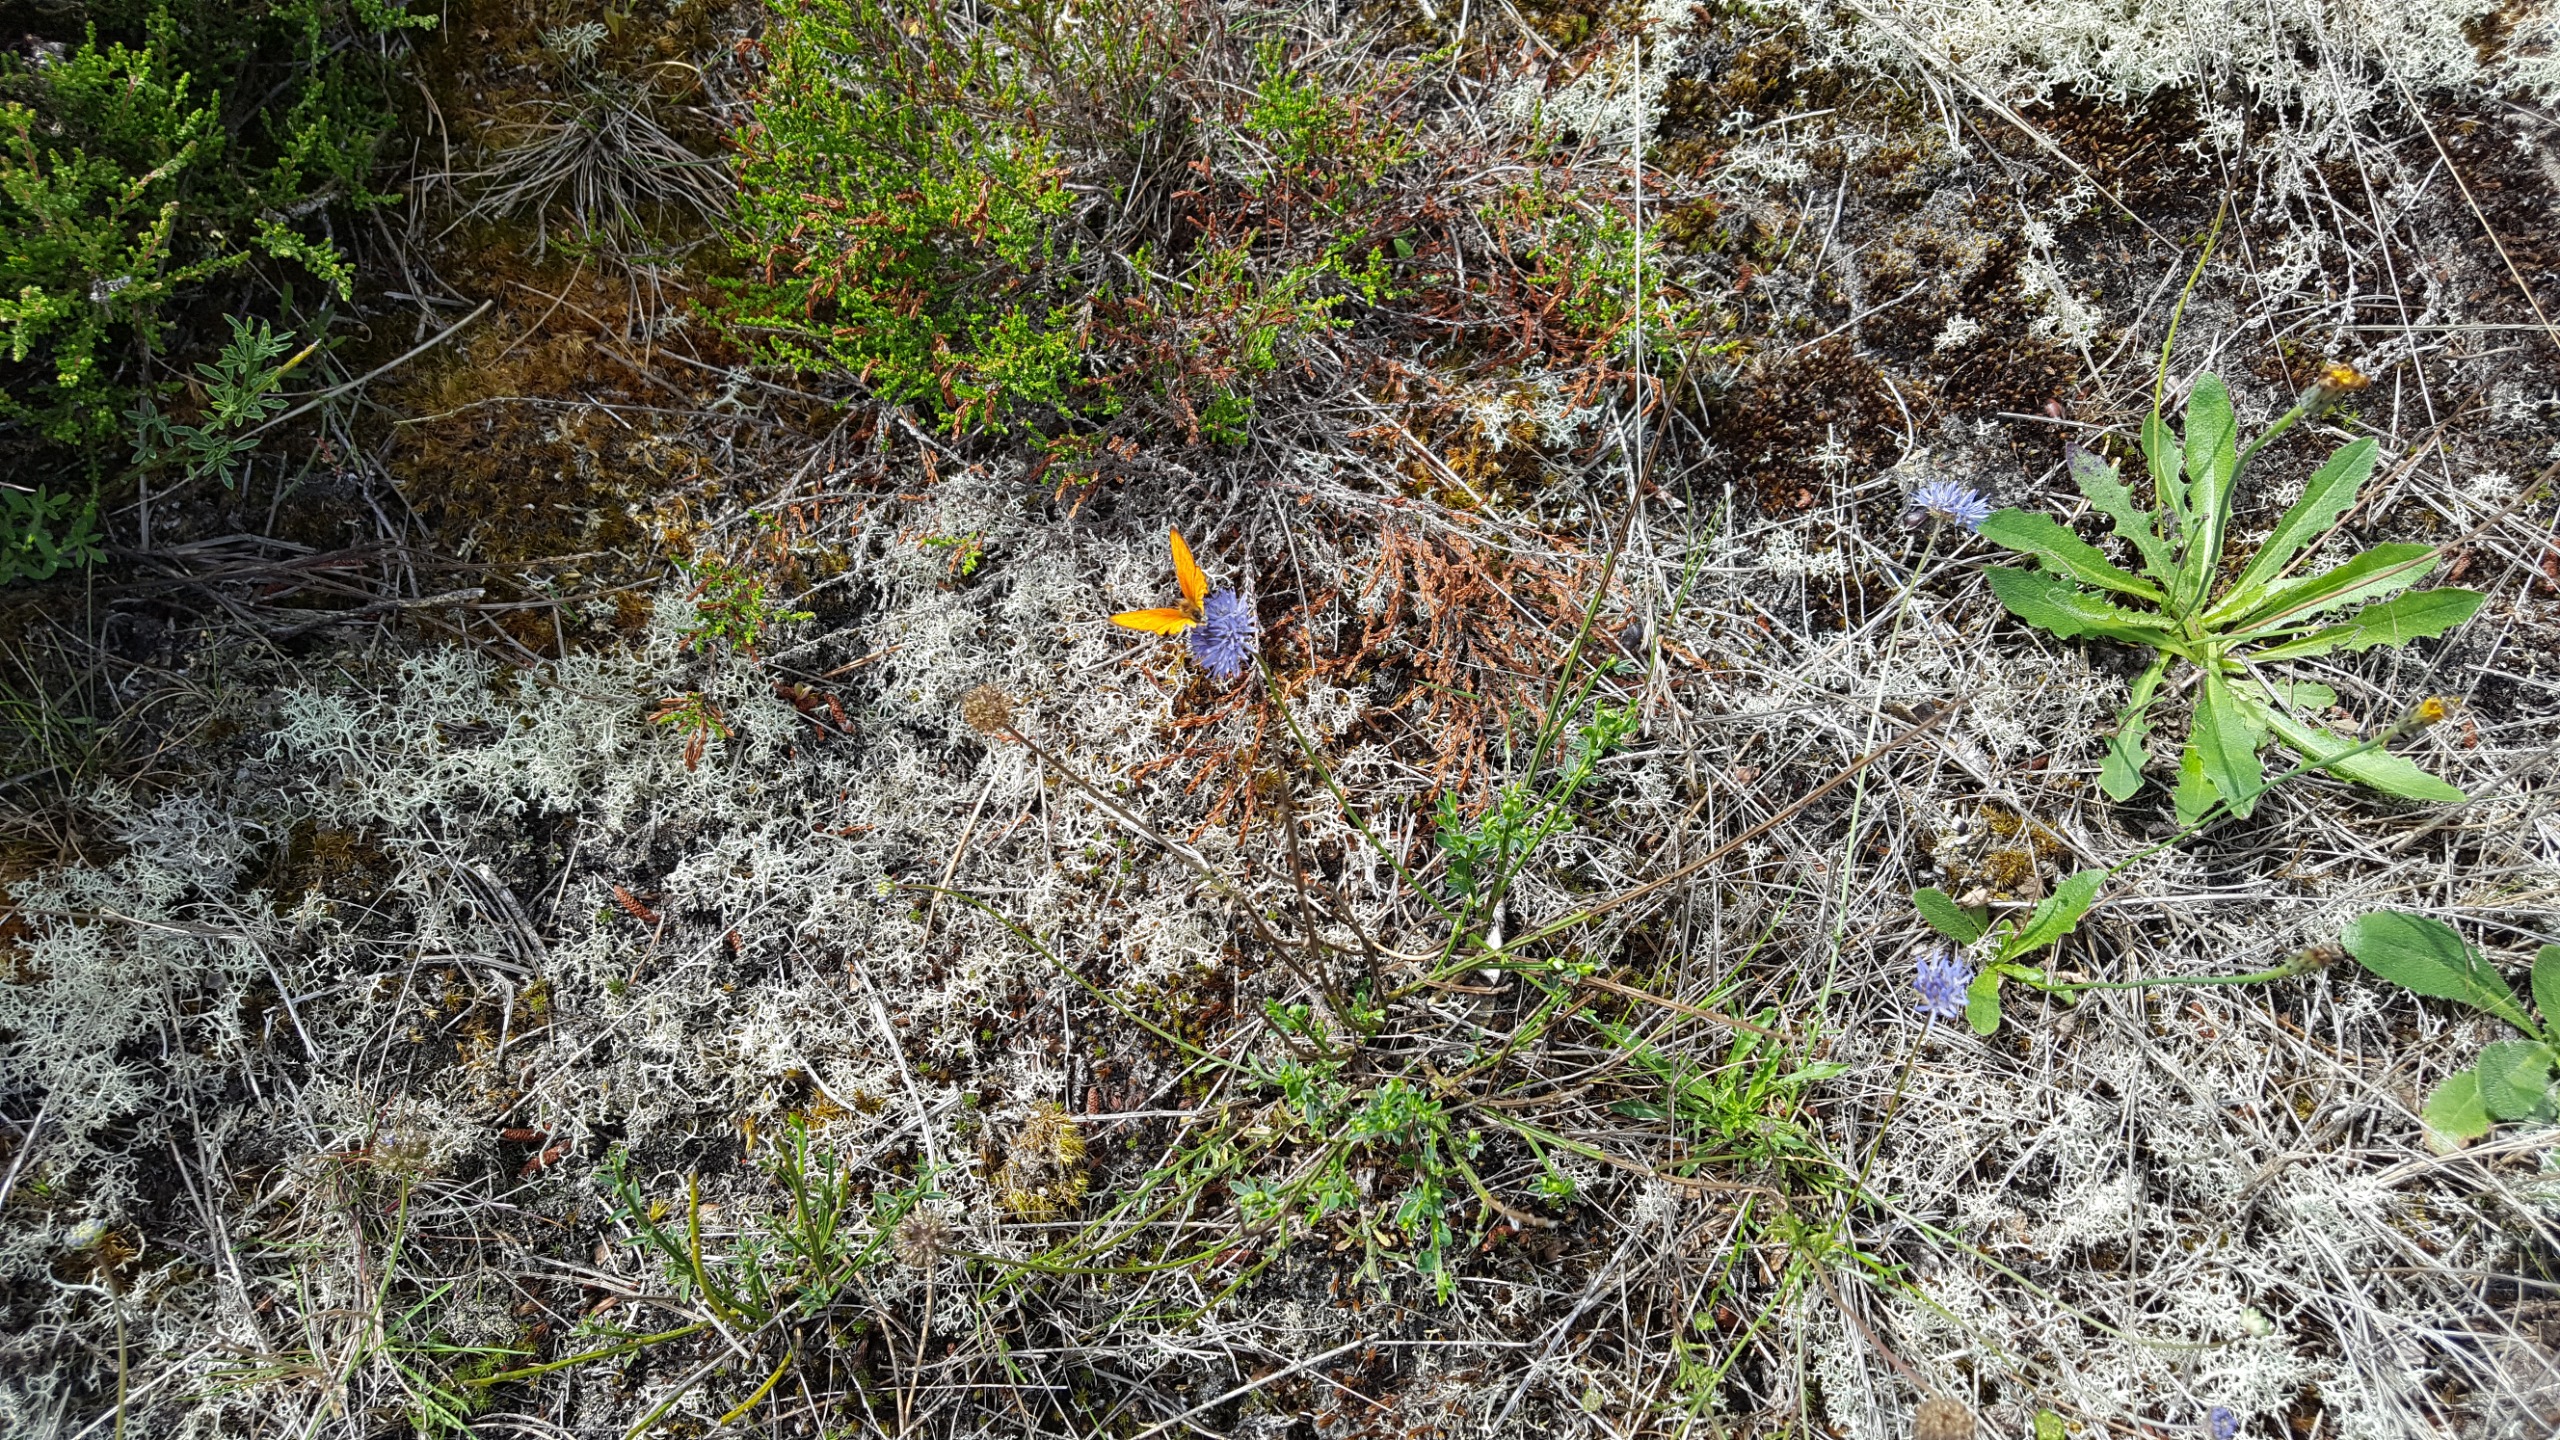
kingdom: Animalia
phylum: Arthropoda
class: Insecta
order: Lepidoptera
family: Lycaenidae
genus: Lycaena
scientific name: Lycaena virgaureae
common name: Dukatsommerfugl
